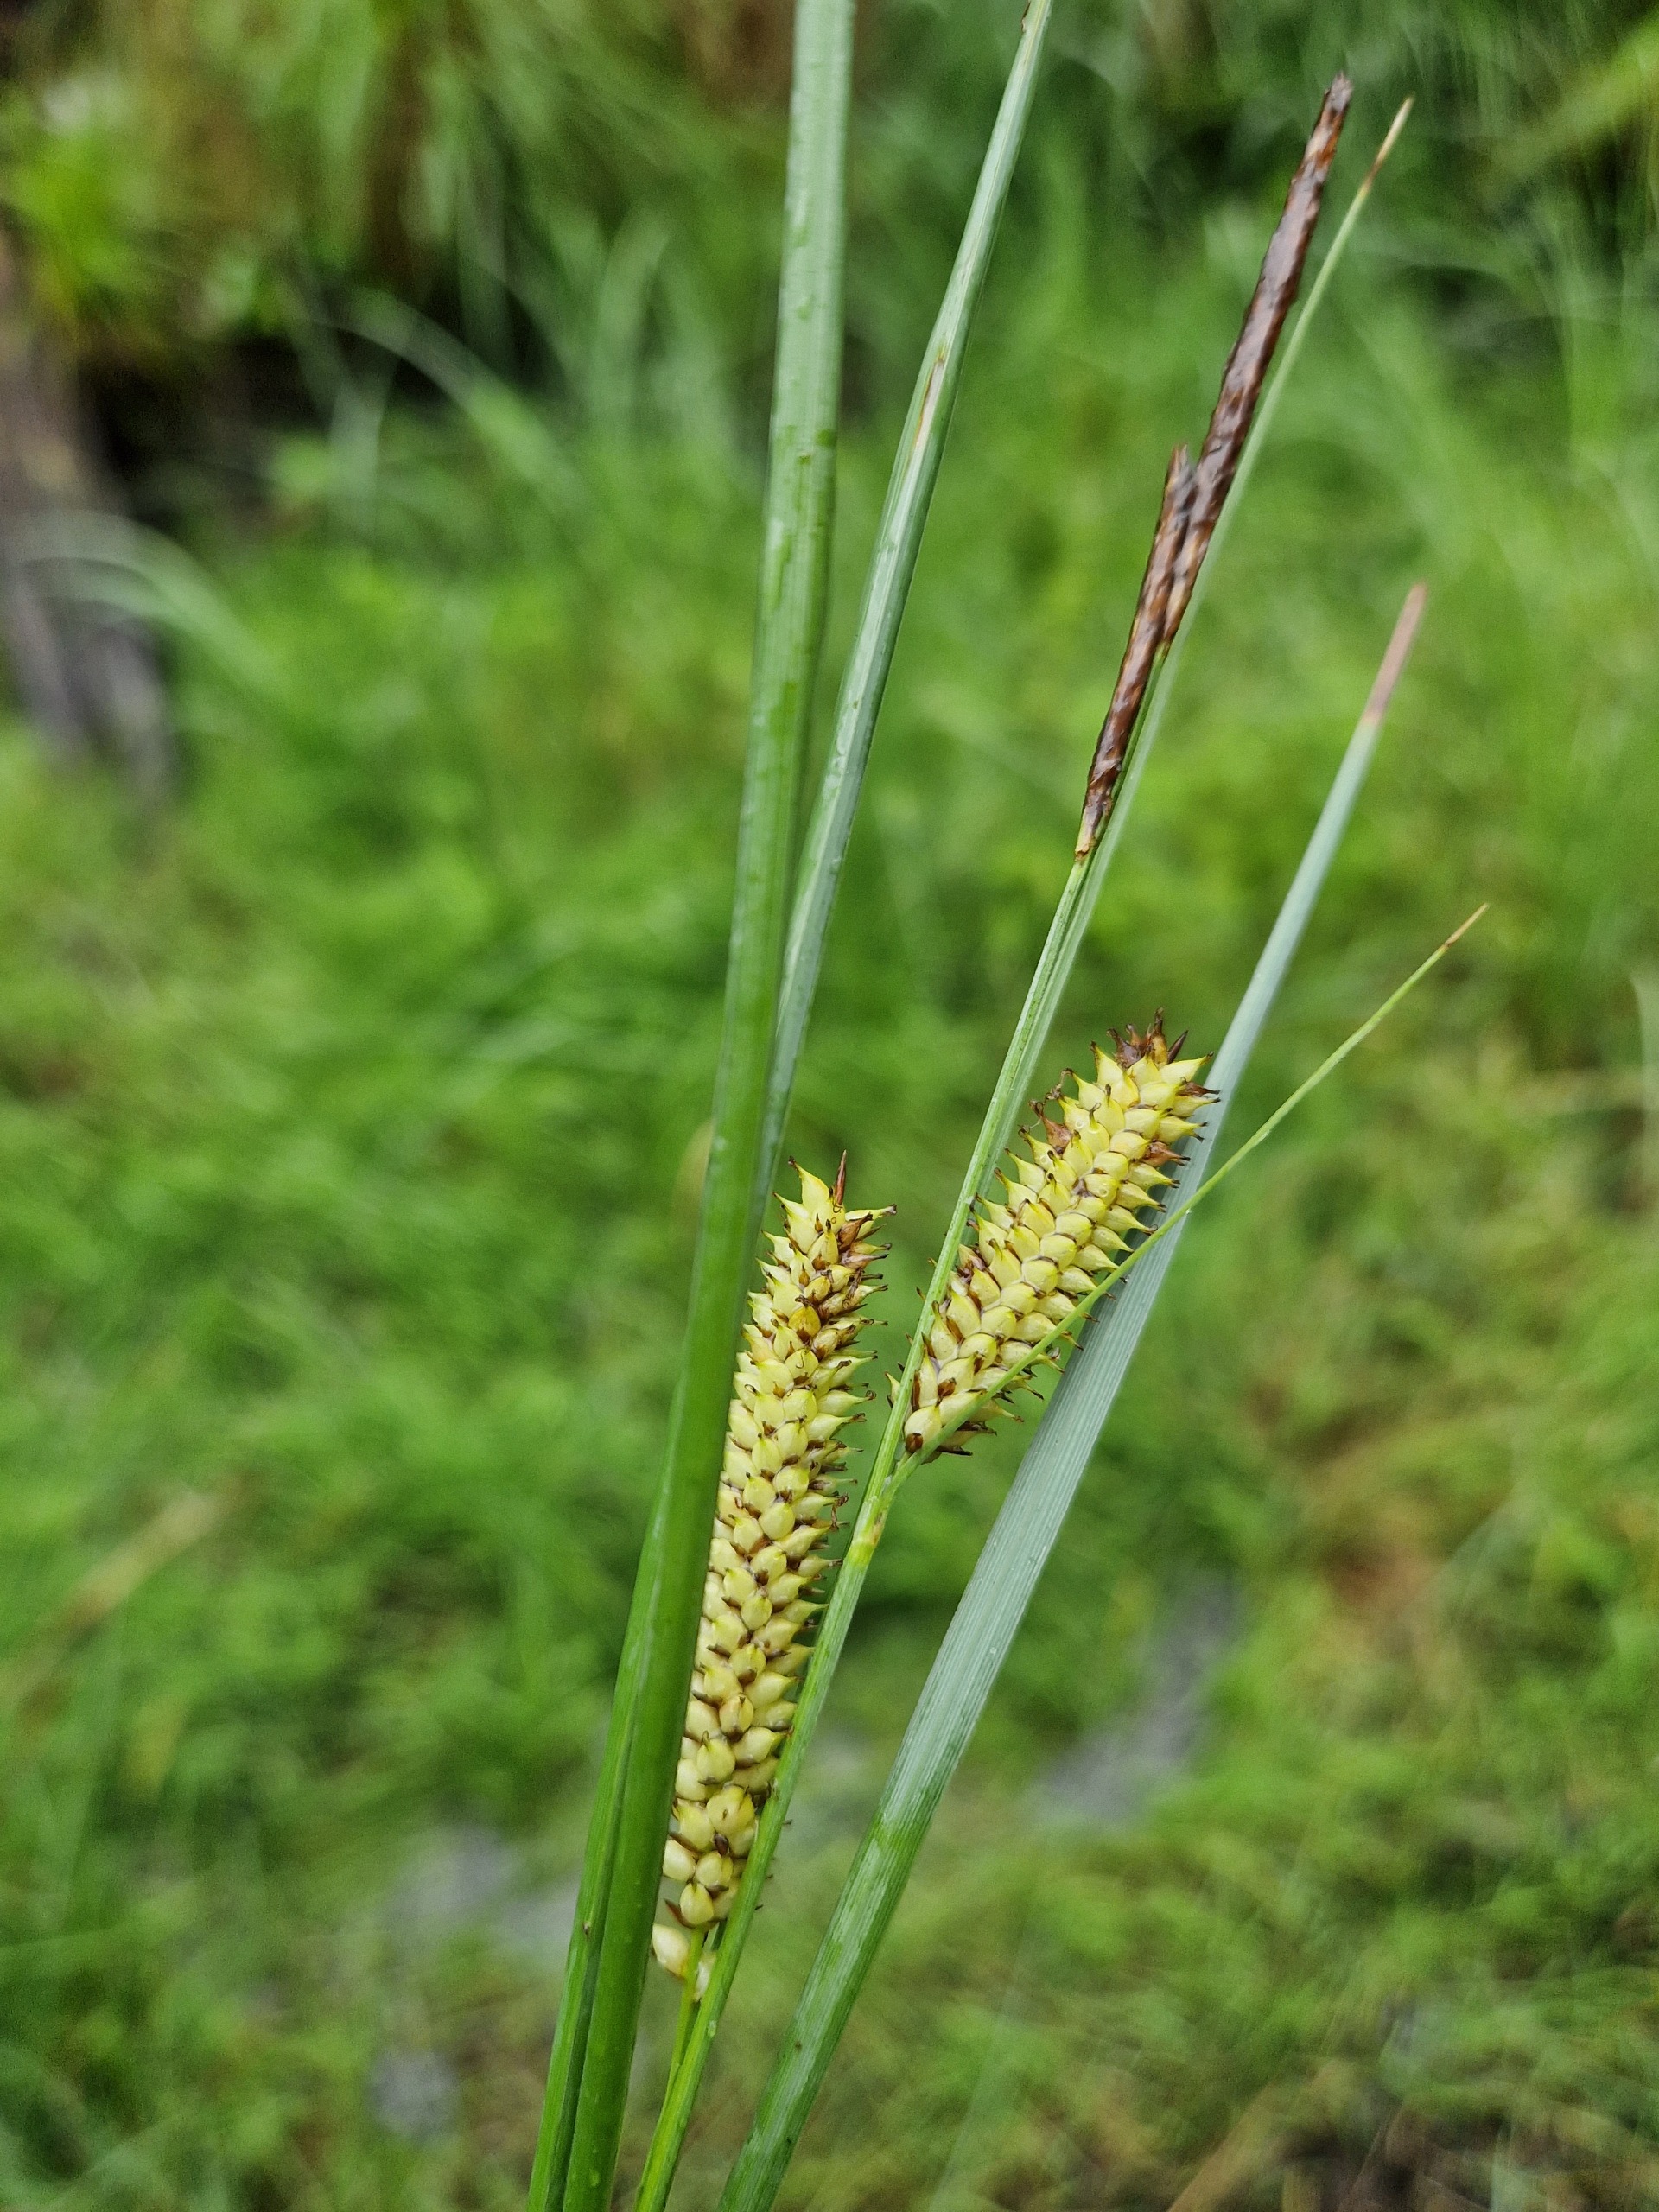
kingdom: Plantae
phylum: Tracheophyta
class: Liliopsida
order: Poales
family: Cyperaceae
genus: Carex
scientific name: Carex rostrata
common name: Næb-star
